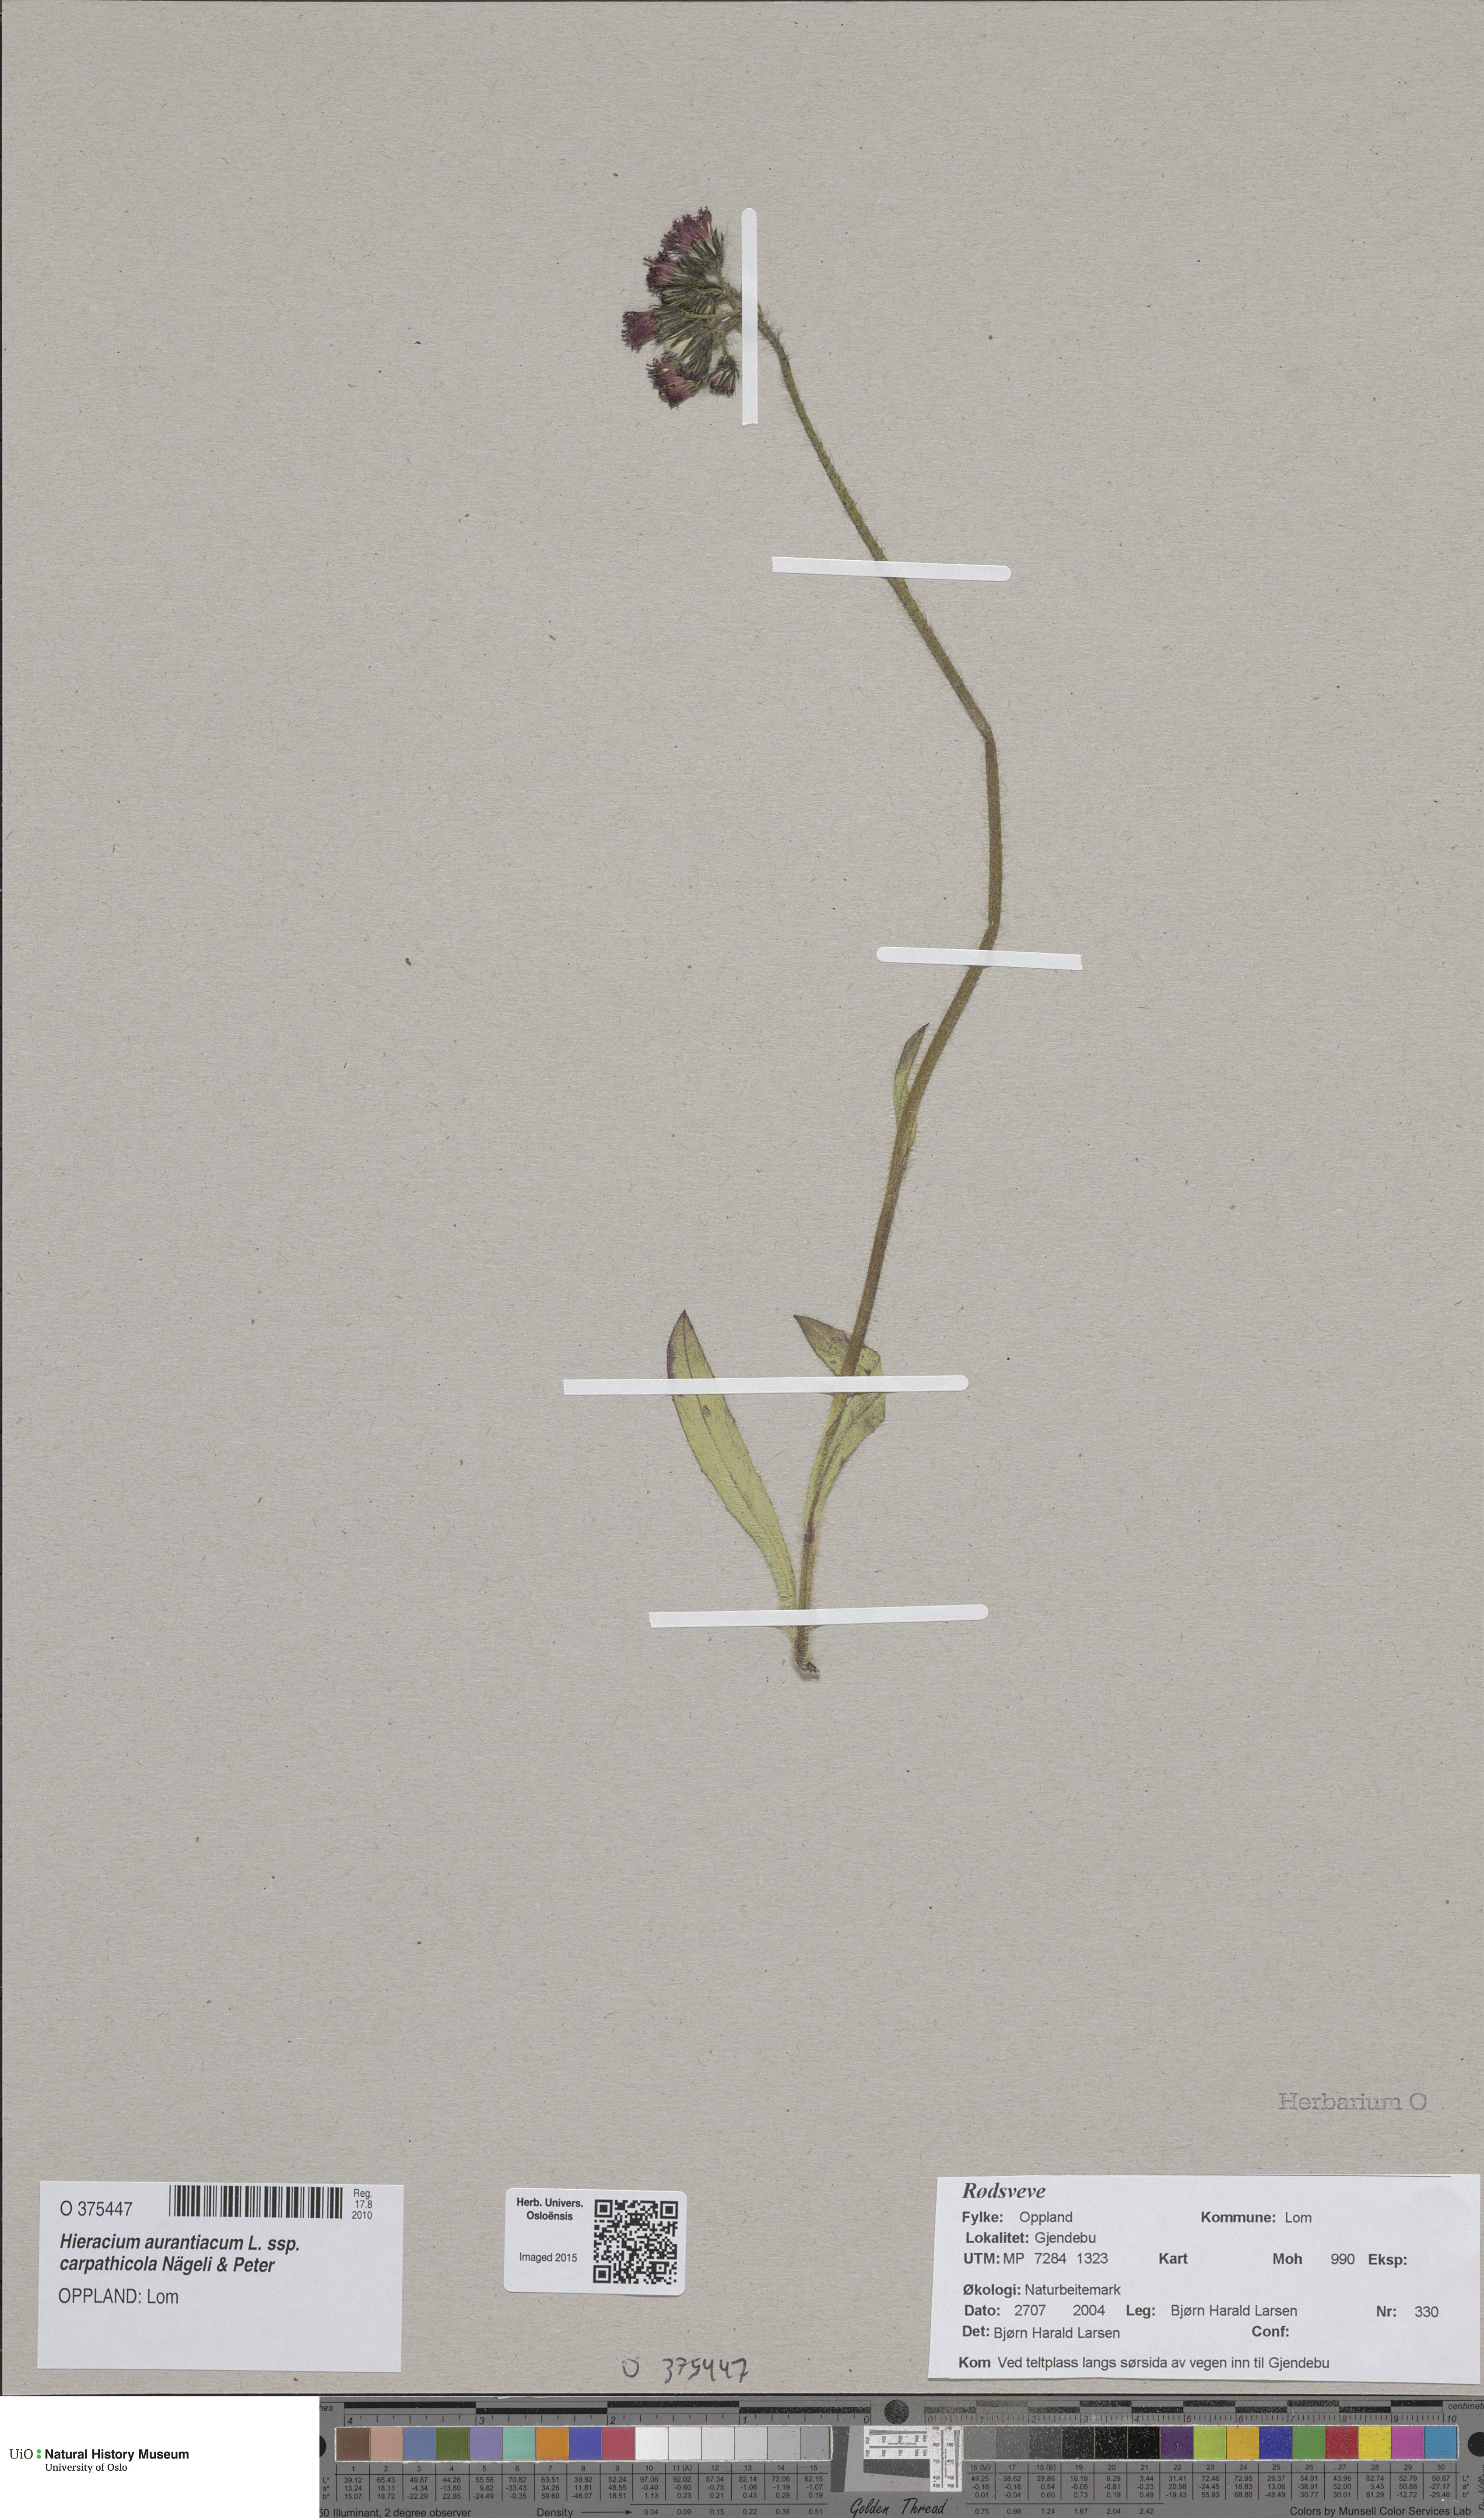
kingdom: Plantae
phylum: Tracheophyta
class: Magnoliopsida
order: Asterales
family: Asteraceae
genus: Pilosella
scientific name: Pilosella aurantiaca
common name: Fox-and-cubs
